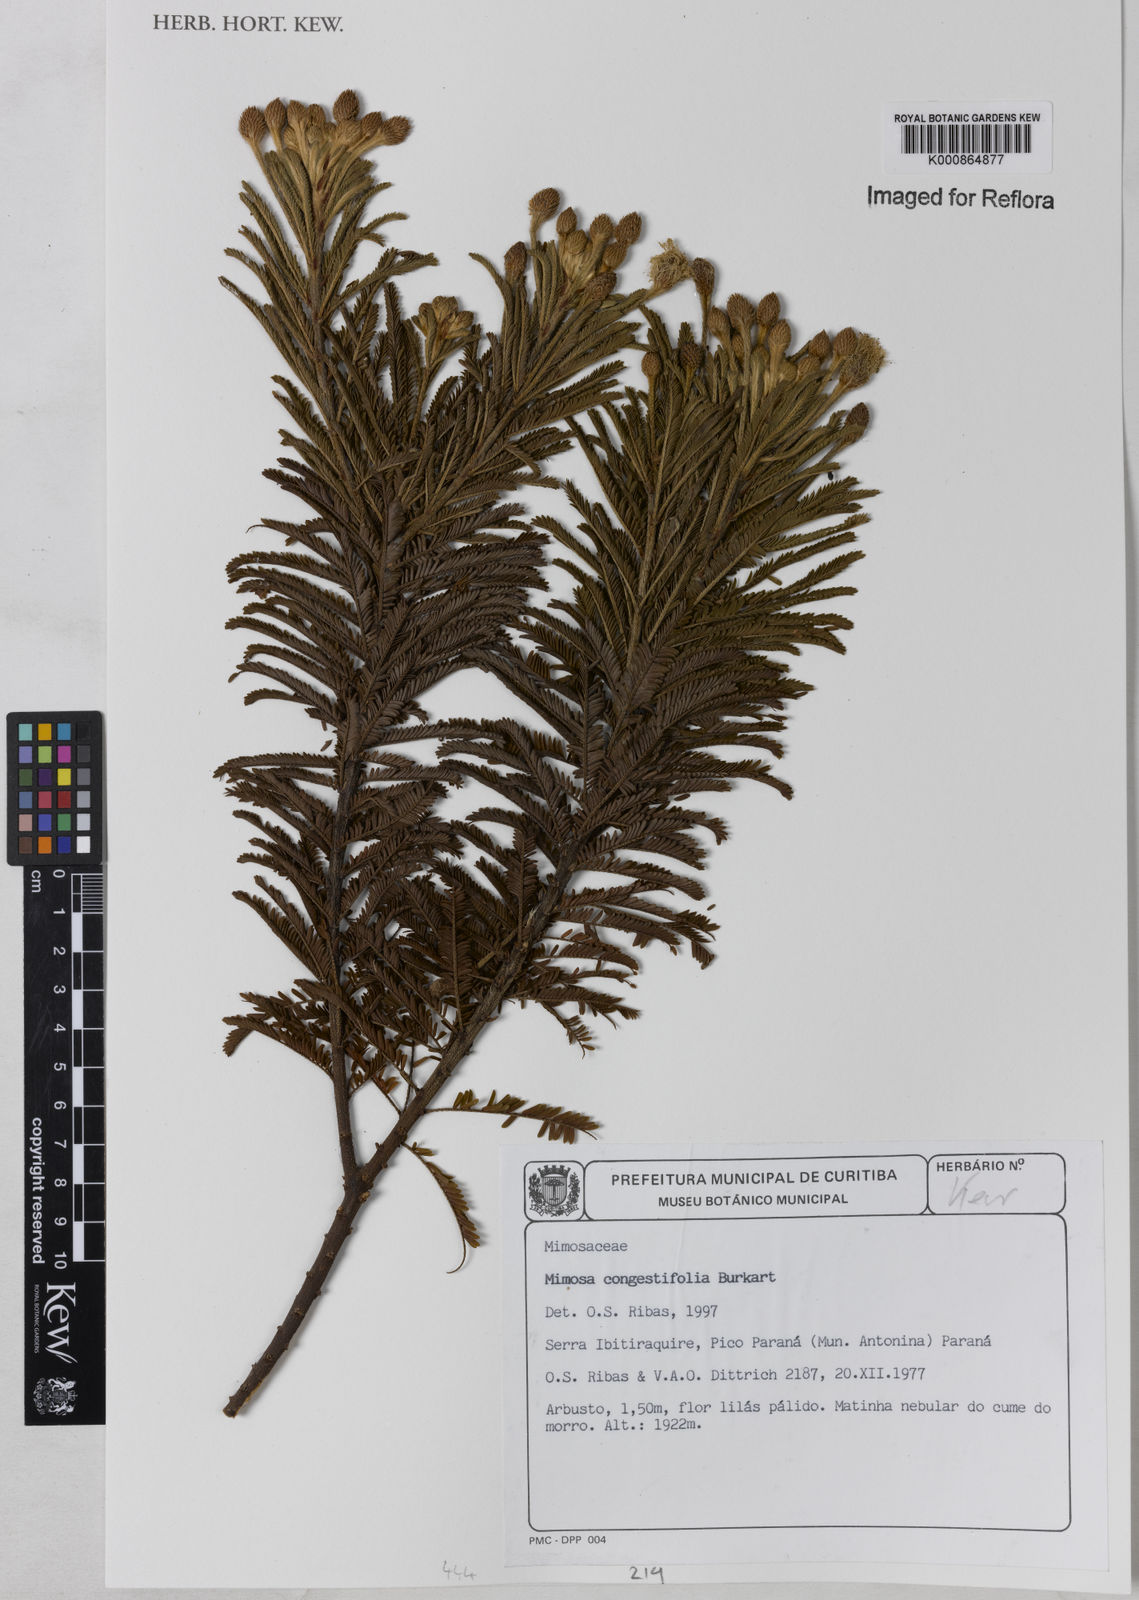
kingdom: Plantae
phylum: Tracheophyta
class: Magnoliopsida
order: Fabales
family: Fabaceae
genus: Mimosa
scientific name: Mimosa congestifolia
